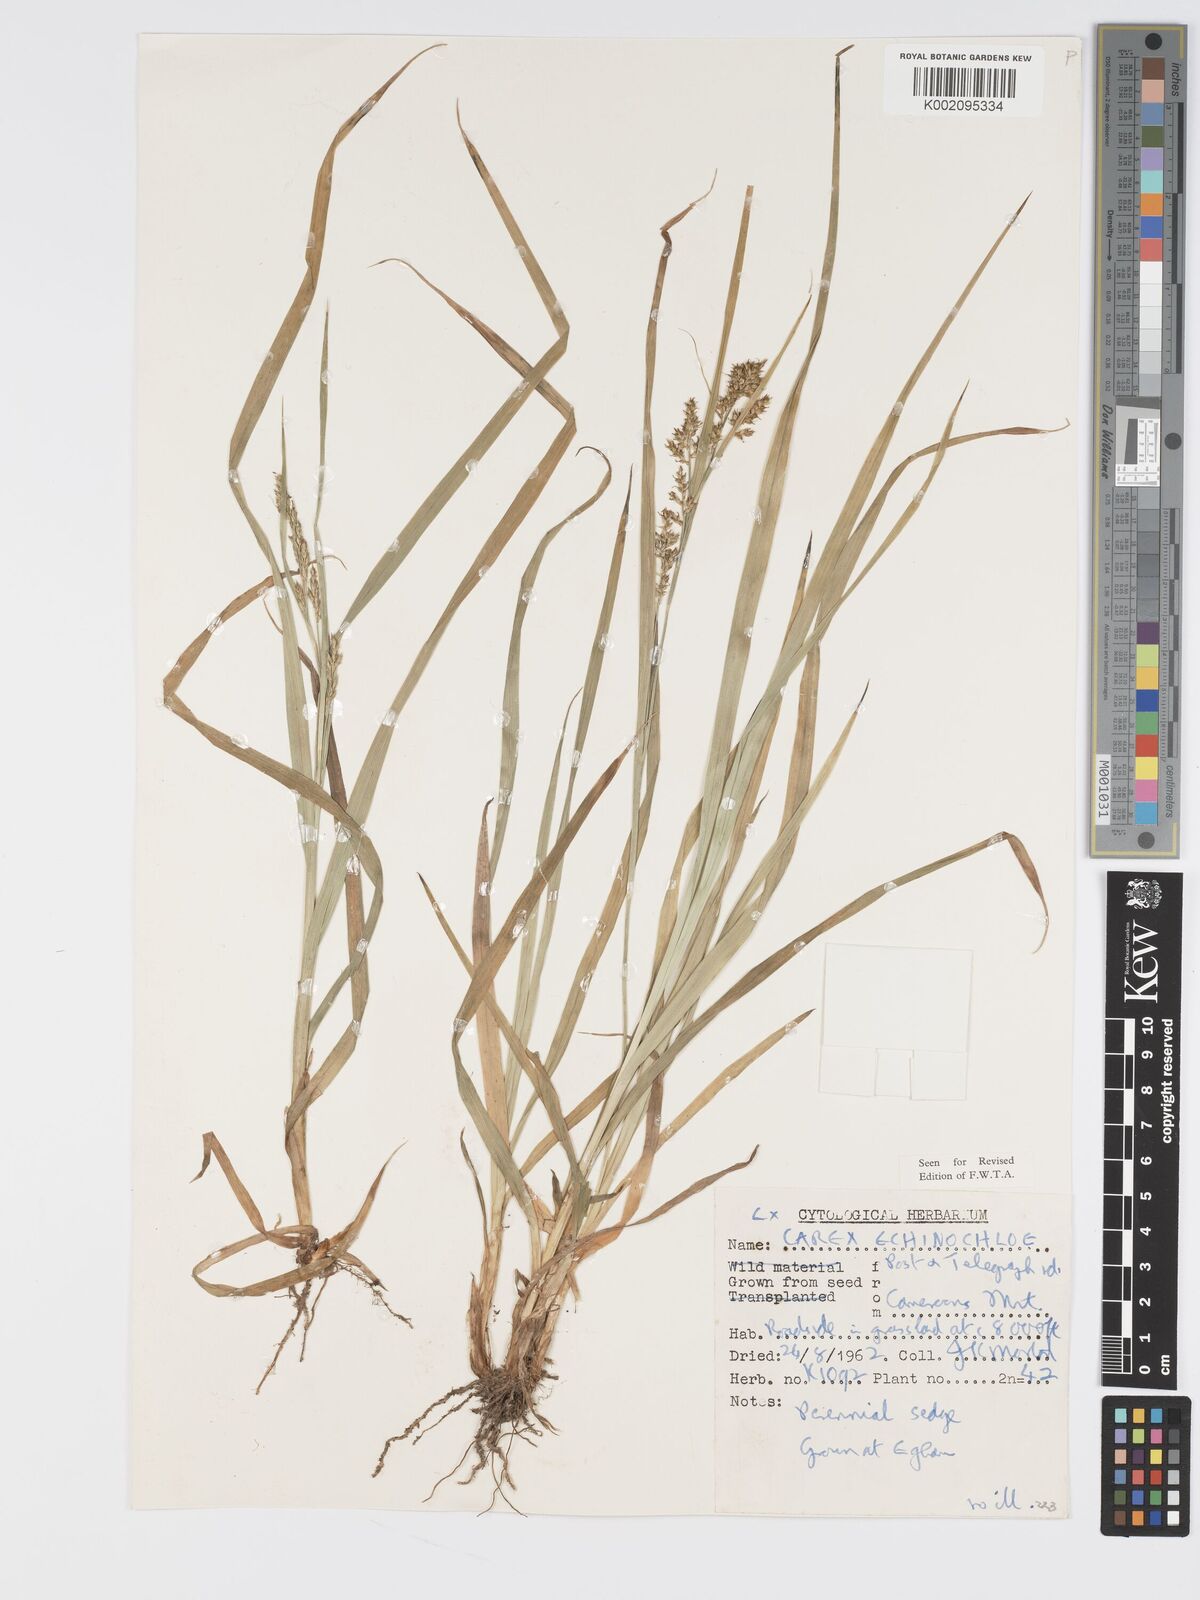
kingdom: Plantae
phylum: Tracheophyta
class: Liliopsida
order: Poales
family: Cyperaceae
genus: Carex
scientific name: Carex echinochloe
